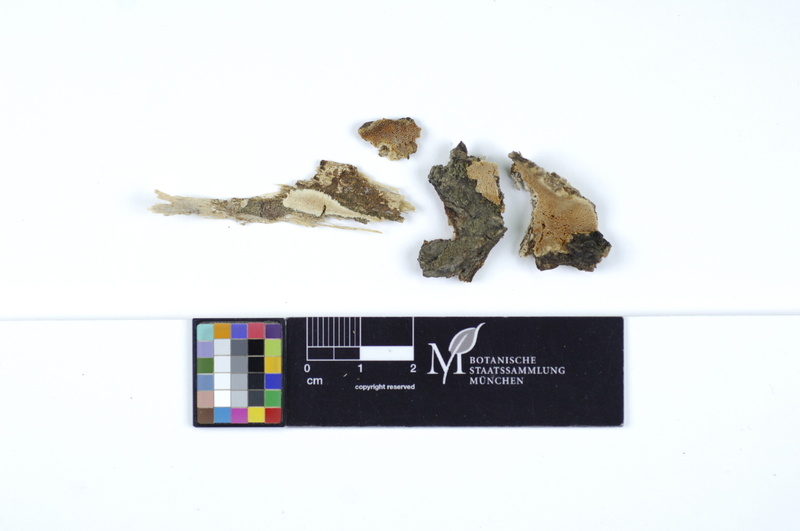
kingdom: Fungi
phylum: Basidiomycota
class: Agaricomycetes
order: Polyporales
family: Steccherinaceae
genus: Antrodiella
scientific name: Antrodiella romellii
